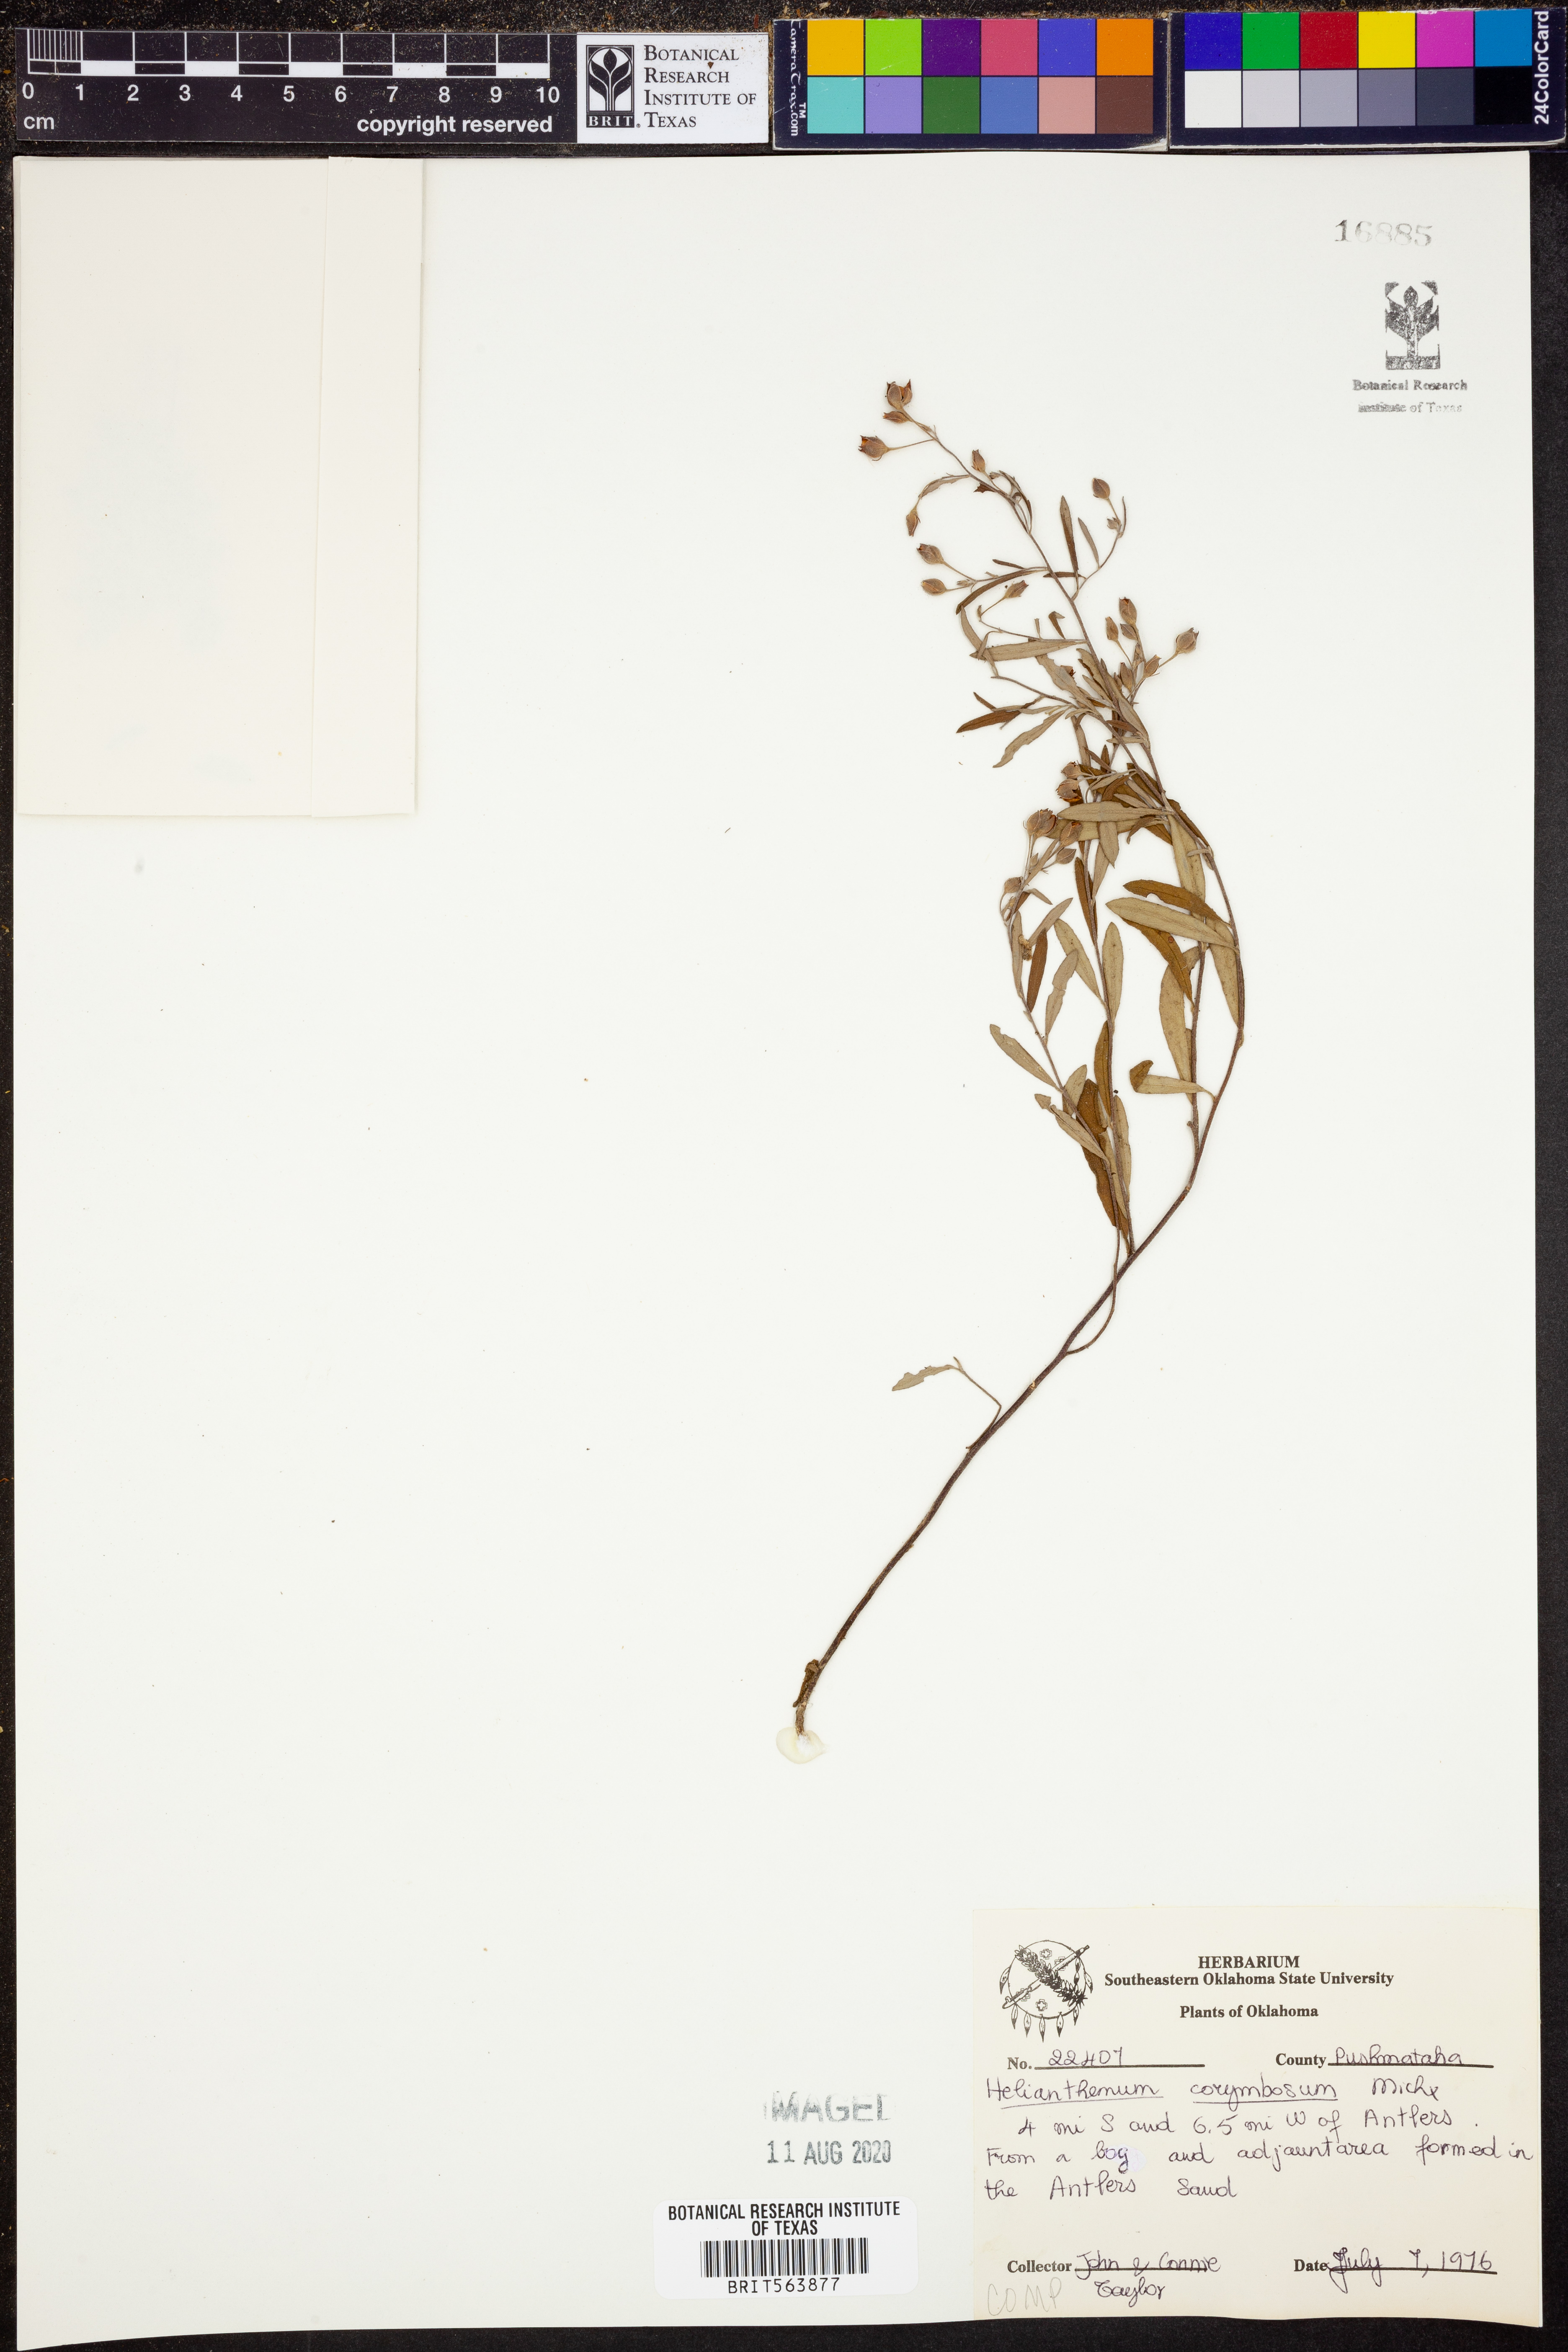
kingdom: Plantae
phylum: Tracheophyta
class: Magnoliopsida
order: Malvales
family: Cistaceae
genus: Crocanthemum
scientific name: Crocanthemum corymbosum
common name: Pinebarren sun-rose
